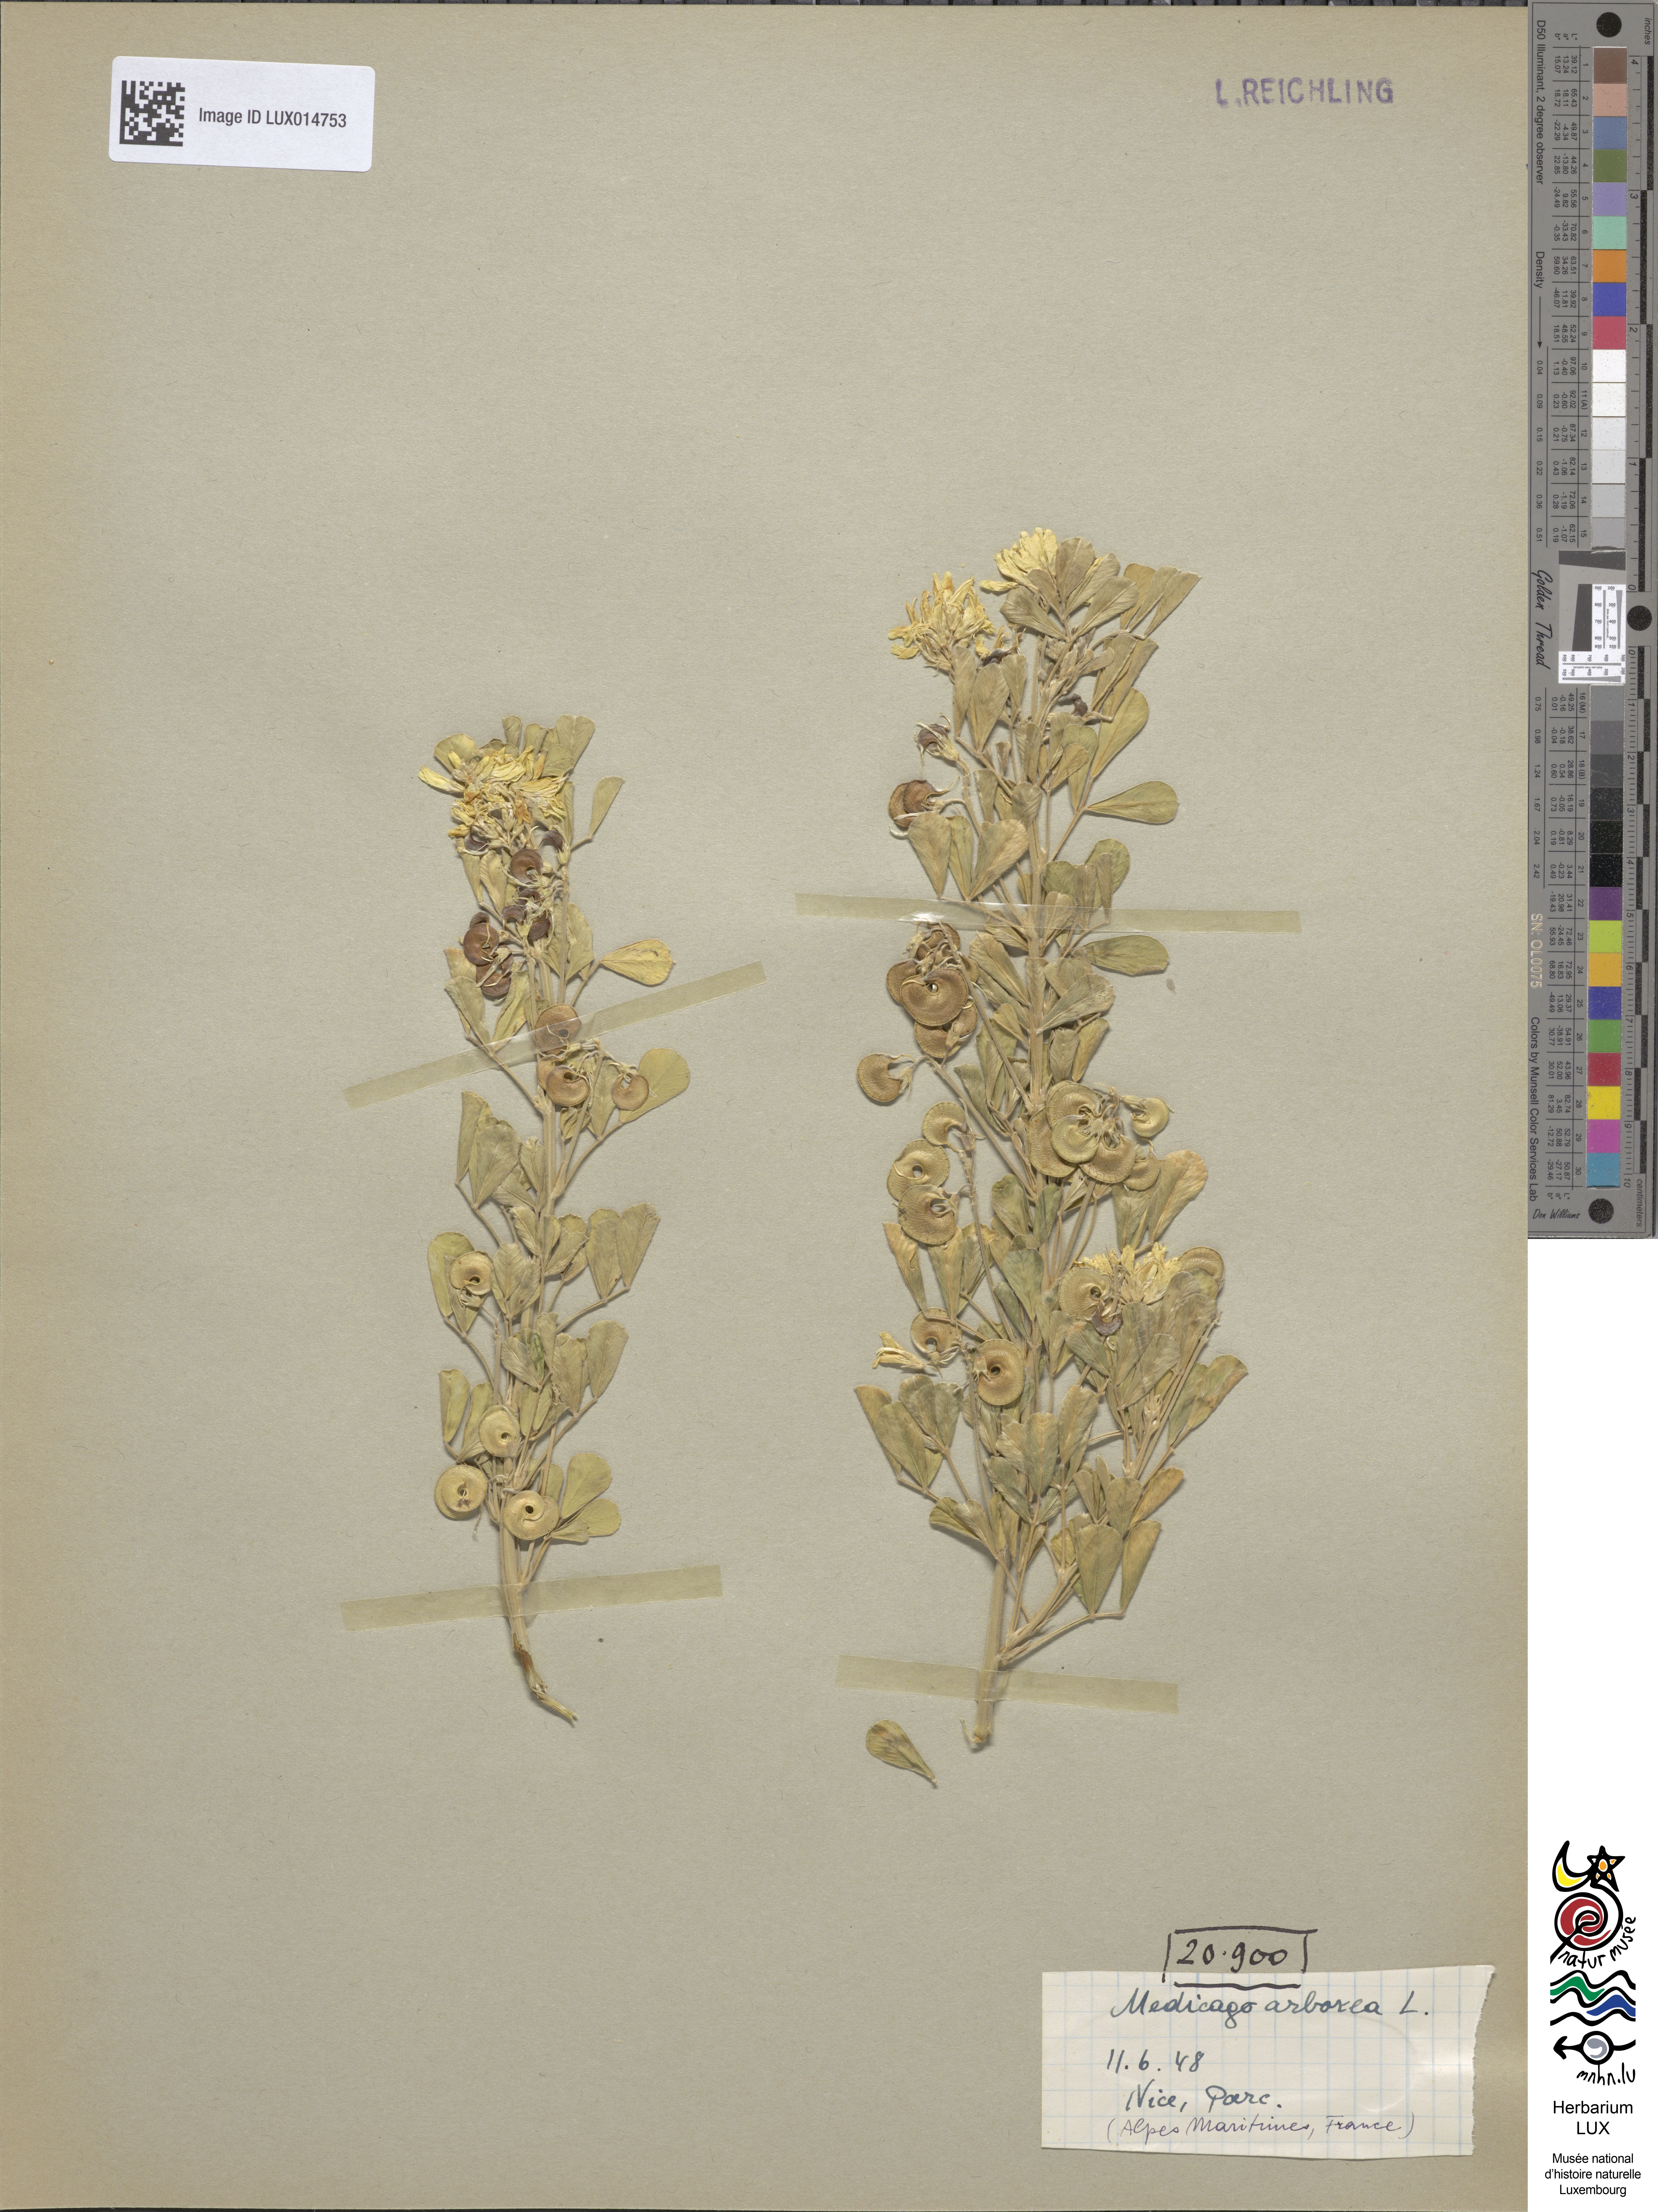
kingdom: Plantae
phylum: Tracheophyta
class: Magnoliopsida
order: Fabales
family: Fabaceae
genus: Medicago
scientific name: Medicago arborea
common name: Moon trefoil
